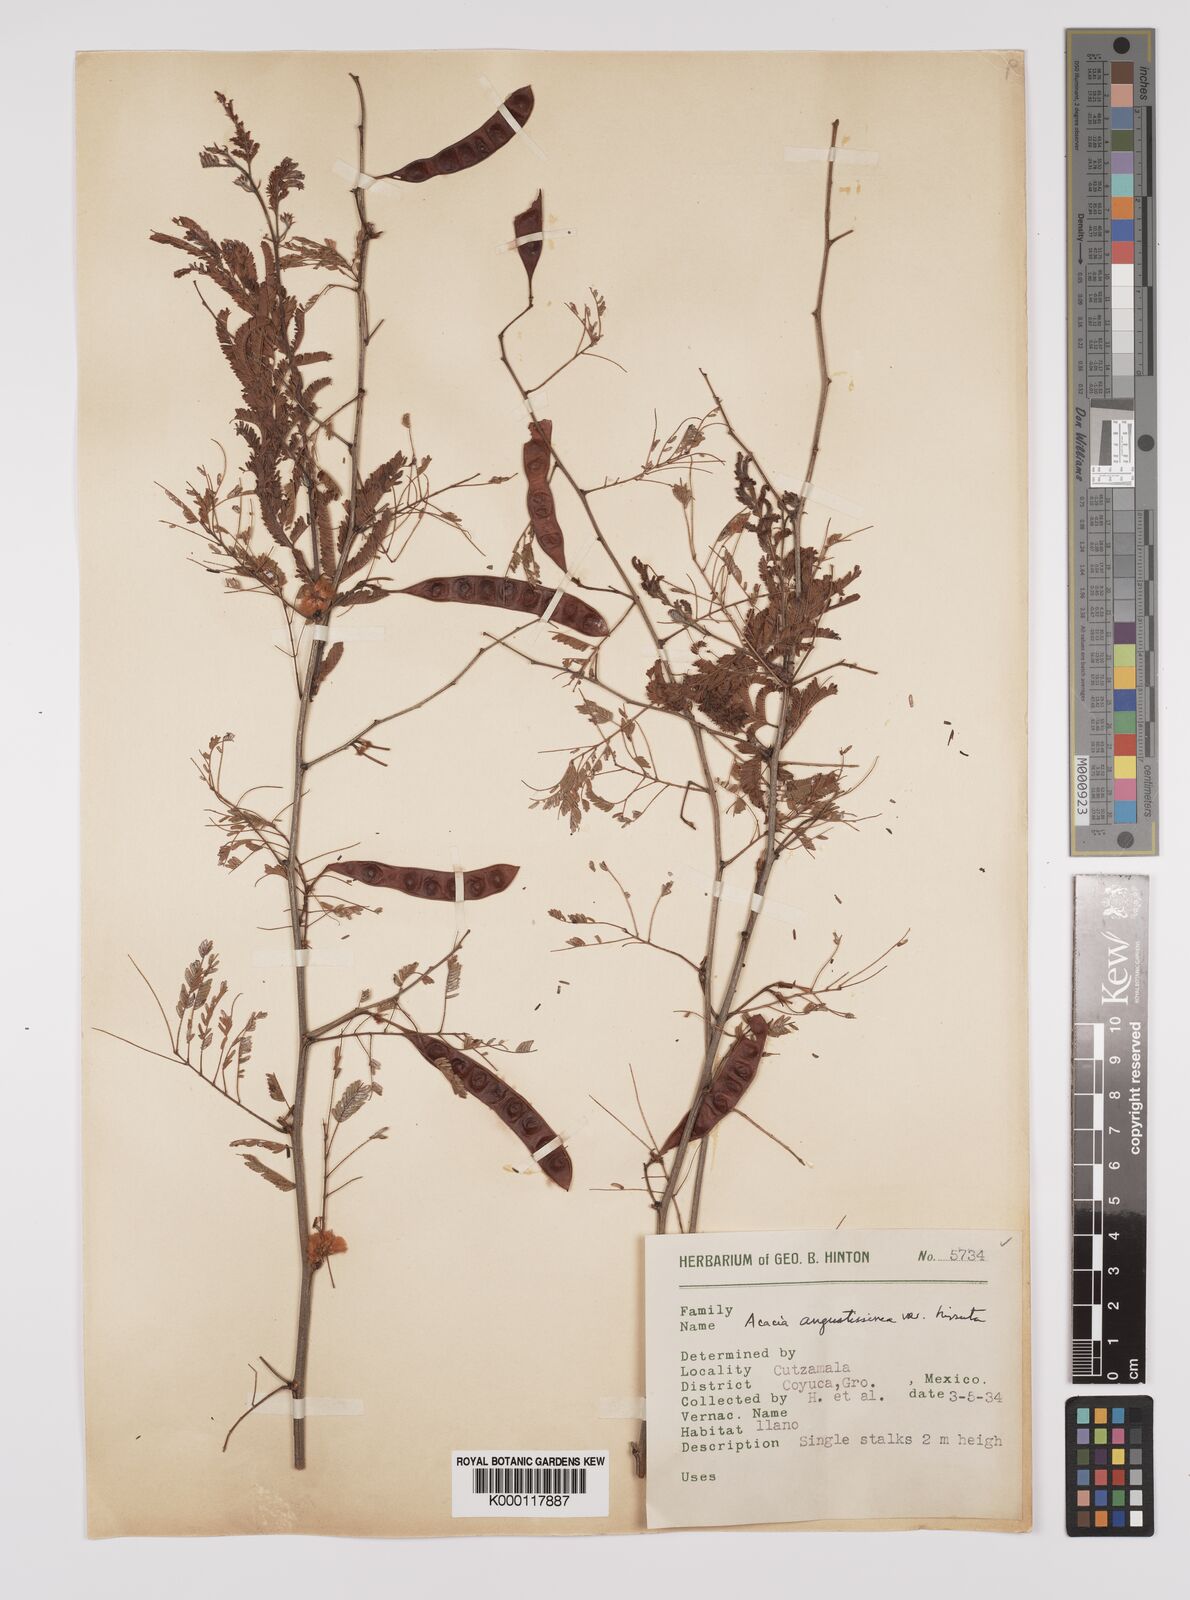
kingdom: Plantae
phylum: Tracheophyta
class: Magnoliopsida
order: Fabales
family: Fabaceae
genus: Acaciella
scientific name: Acaciella angustissima
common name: Prairie acacia
